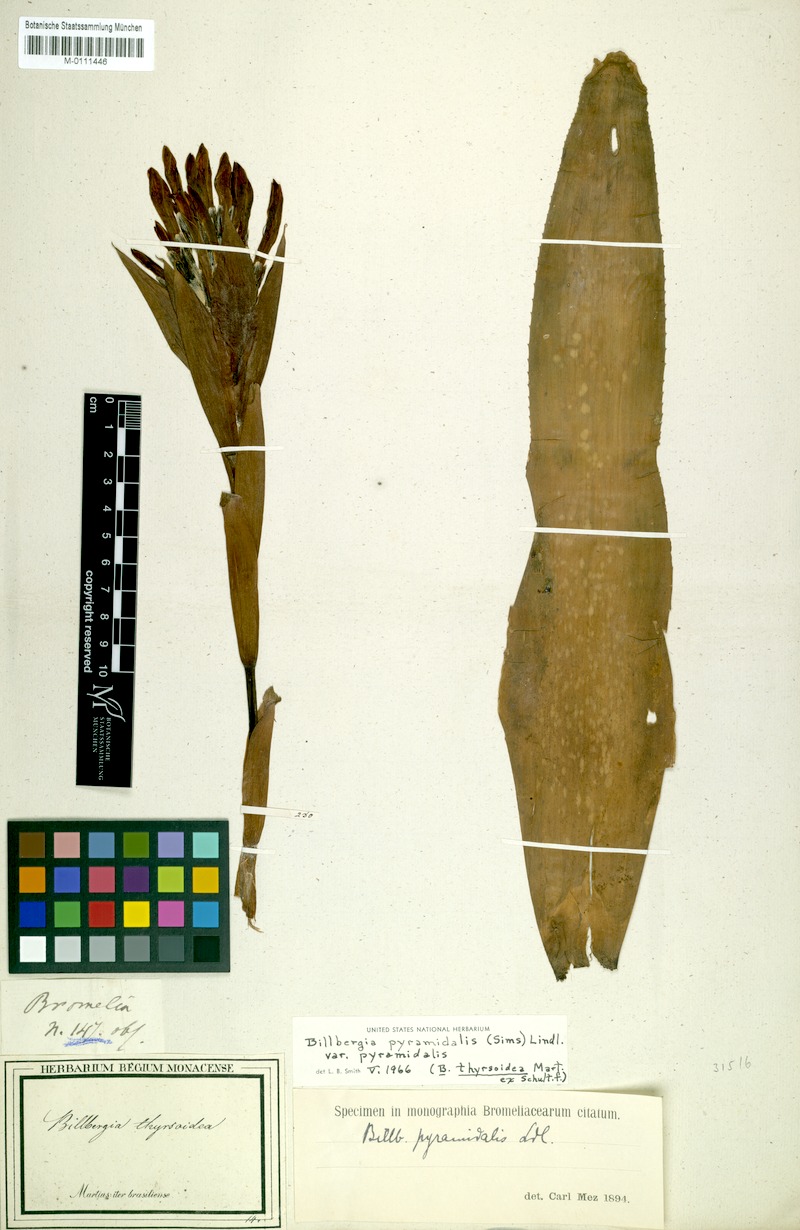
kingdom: Plantae
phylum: Tracheophyta
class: Liliopsida
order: Poales
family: Bromeliaceae
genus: Billbergia
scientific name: Billbergia pyramidalis
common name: Foolproofplant
